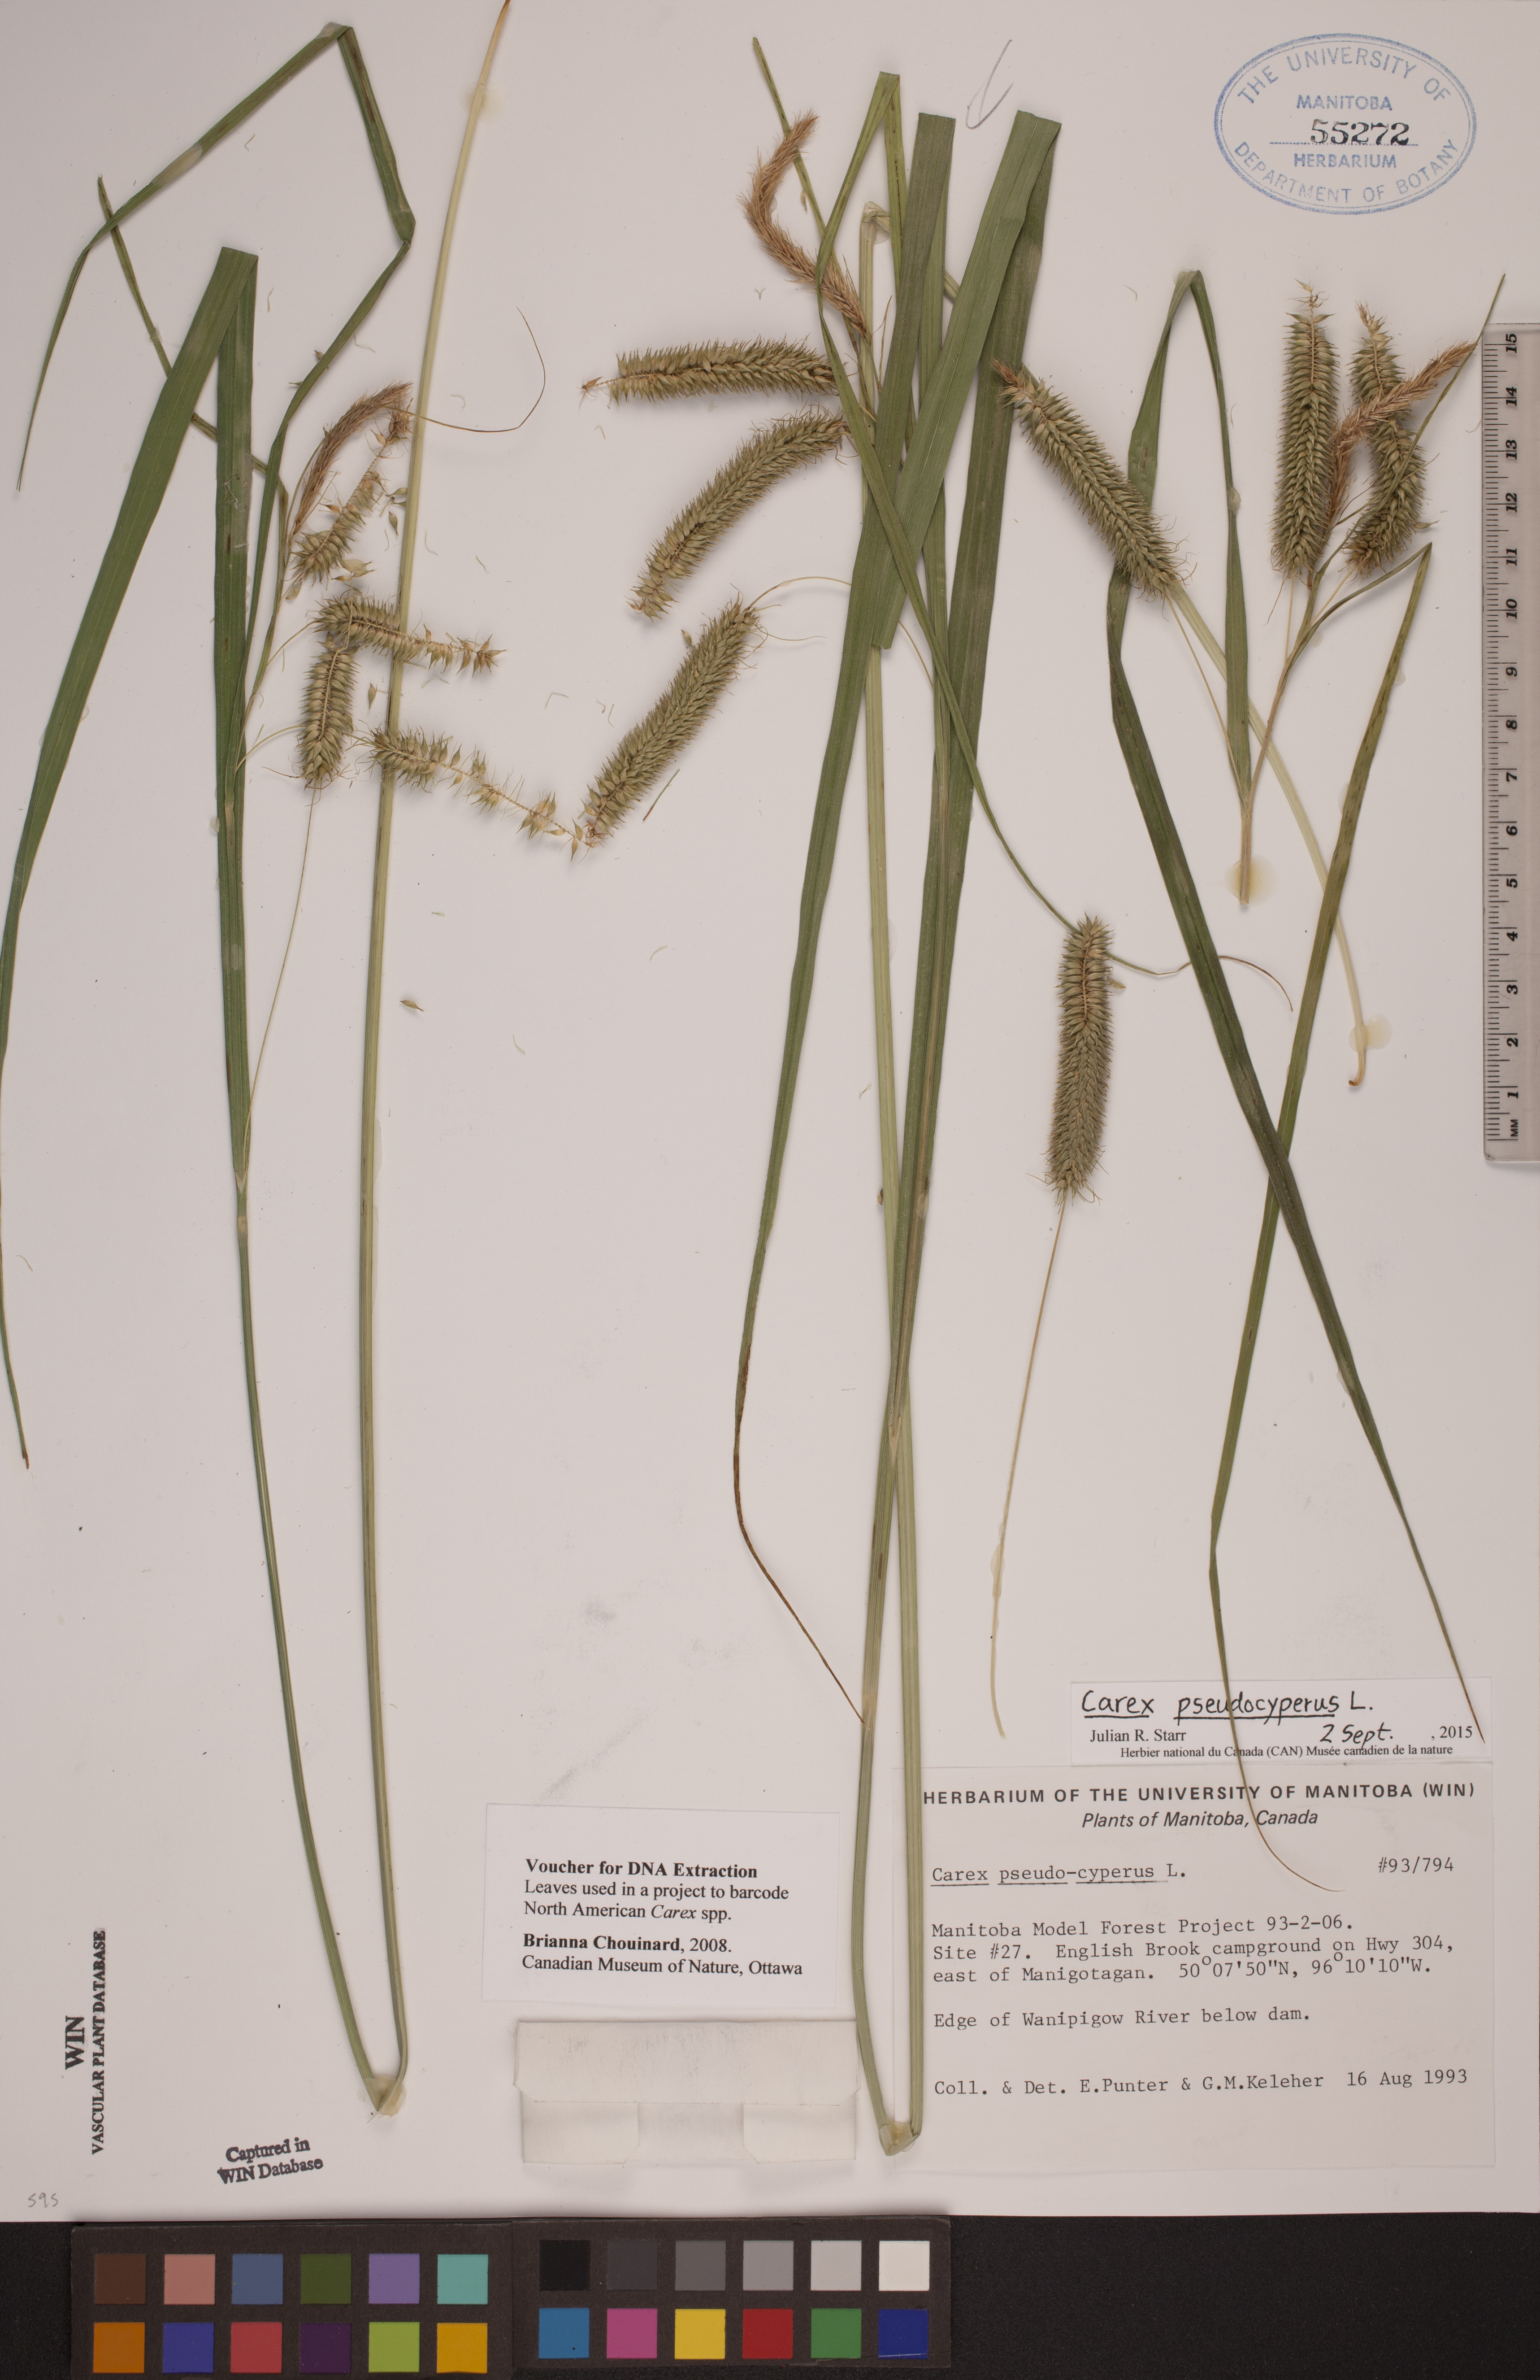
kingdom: Plantae
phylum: Tracheophyta
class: Liliopsida
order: Poales
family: Cyperaceae
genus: Carex
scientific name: Carex pseudocyperus
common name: Cyperus sedge
